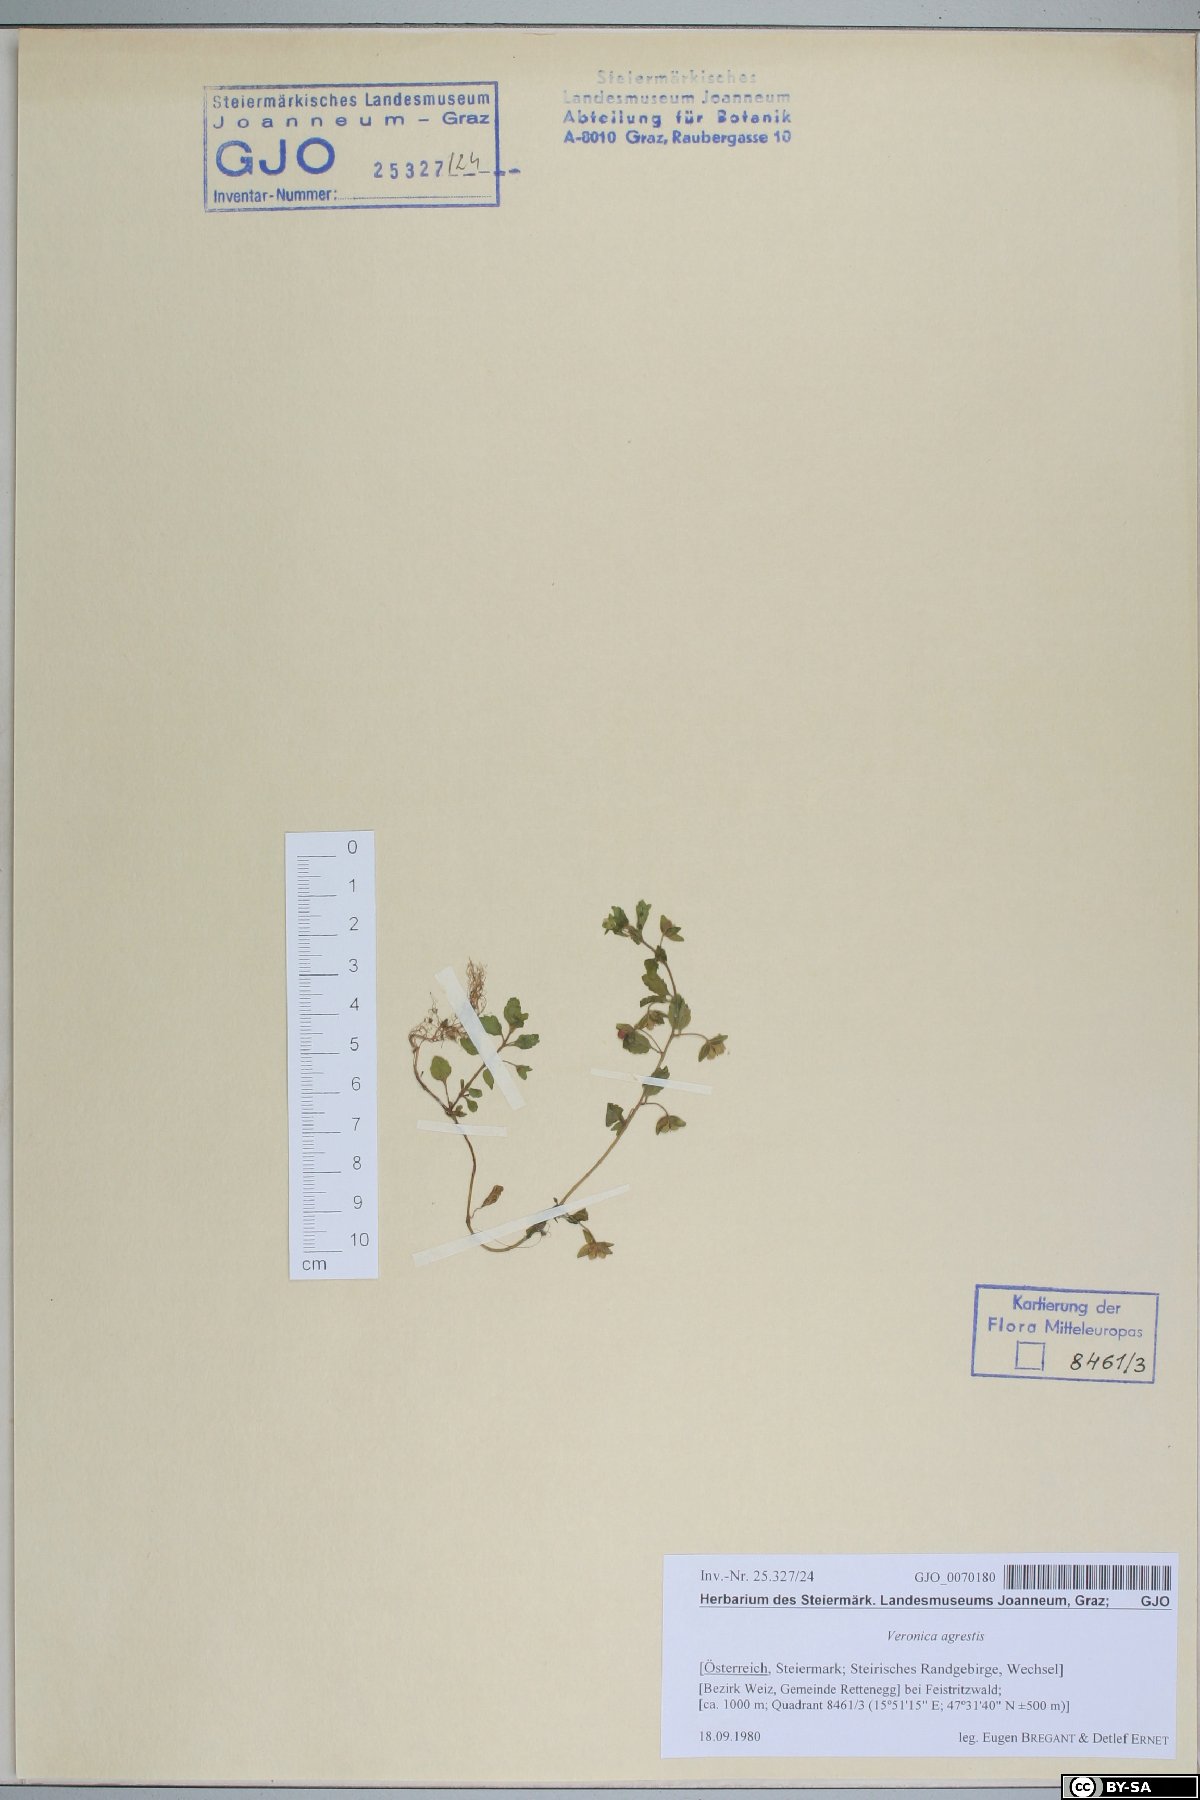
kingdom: Plantae
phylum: Tracheophyta
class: Magnoliopsida
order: Lamiales
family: Plantaginaceae
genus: Veronica
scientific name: Veronica agrestis
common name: Green field-speedwell
